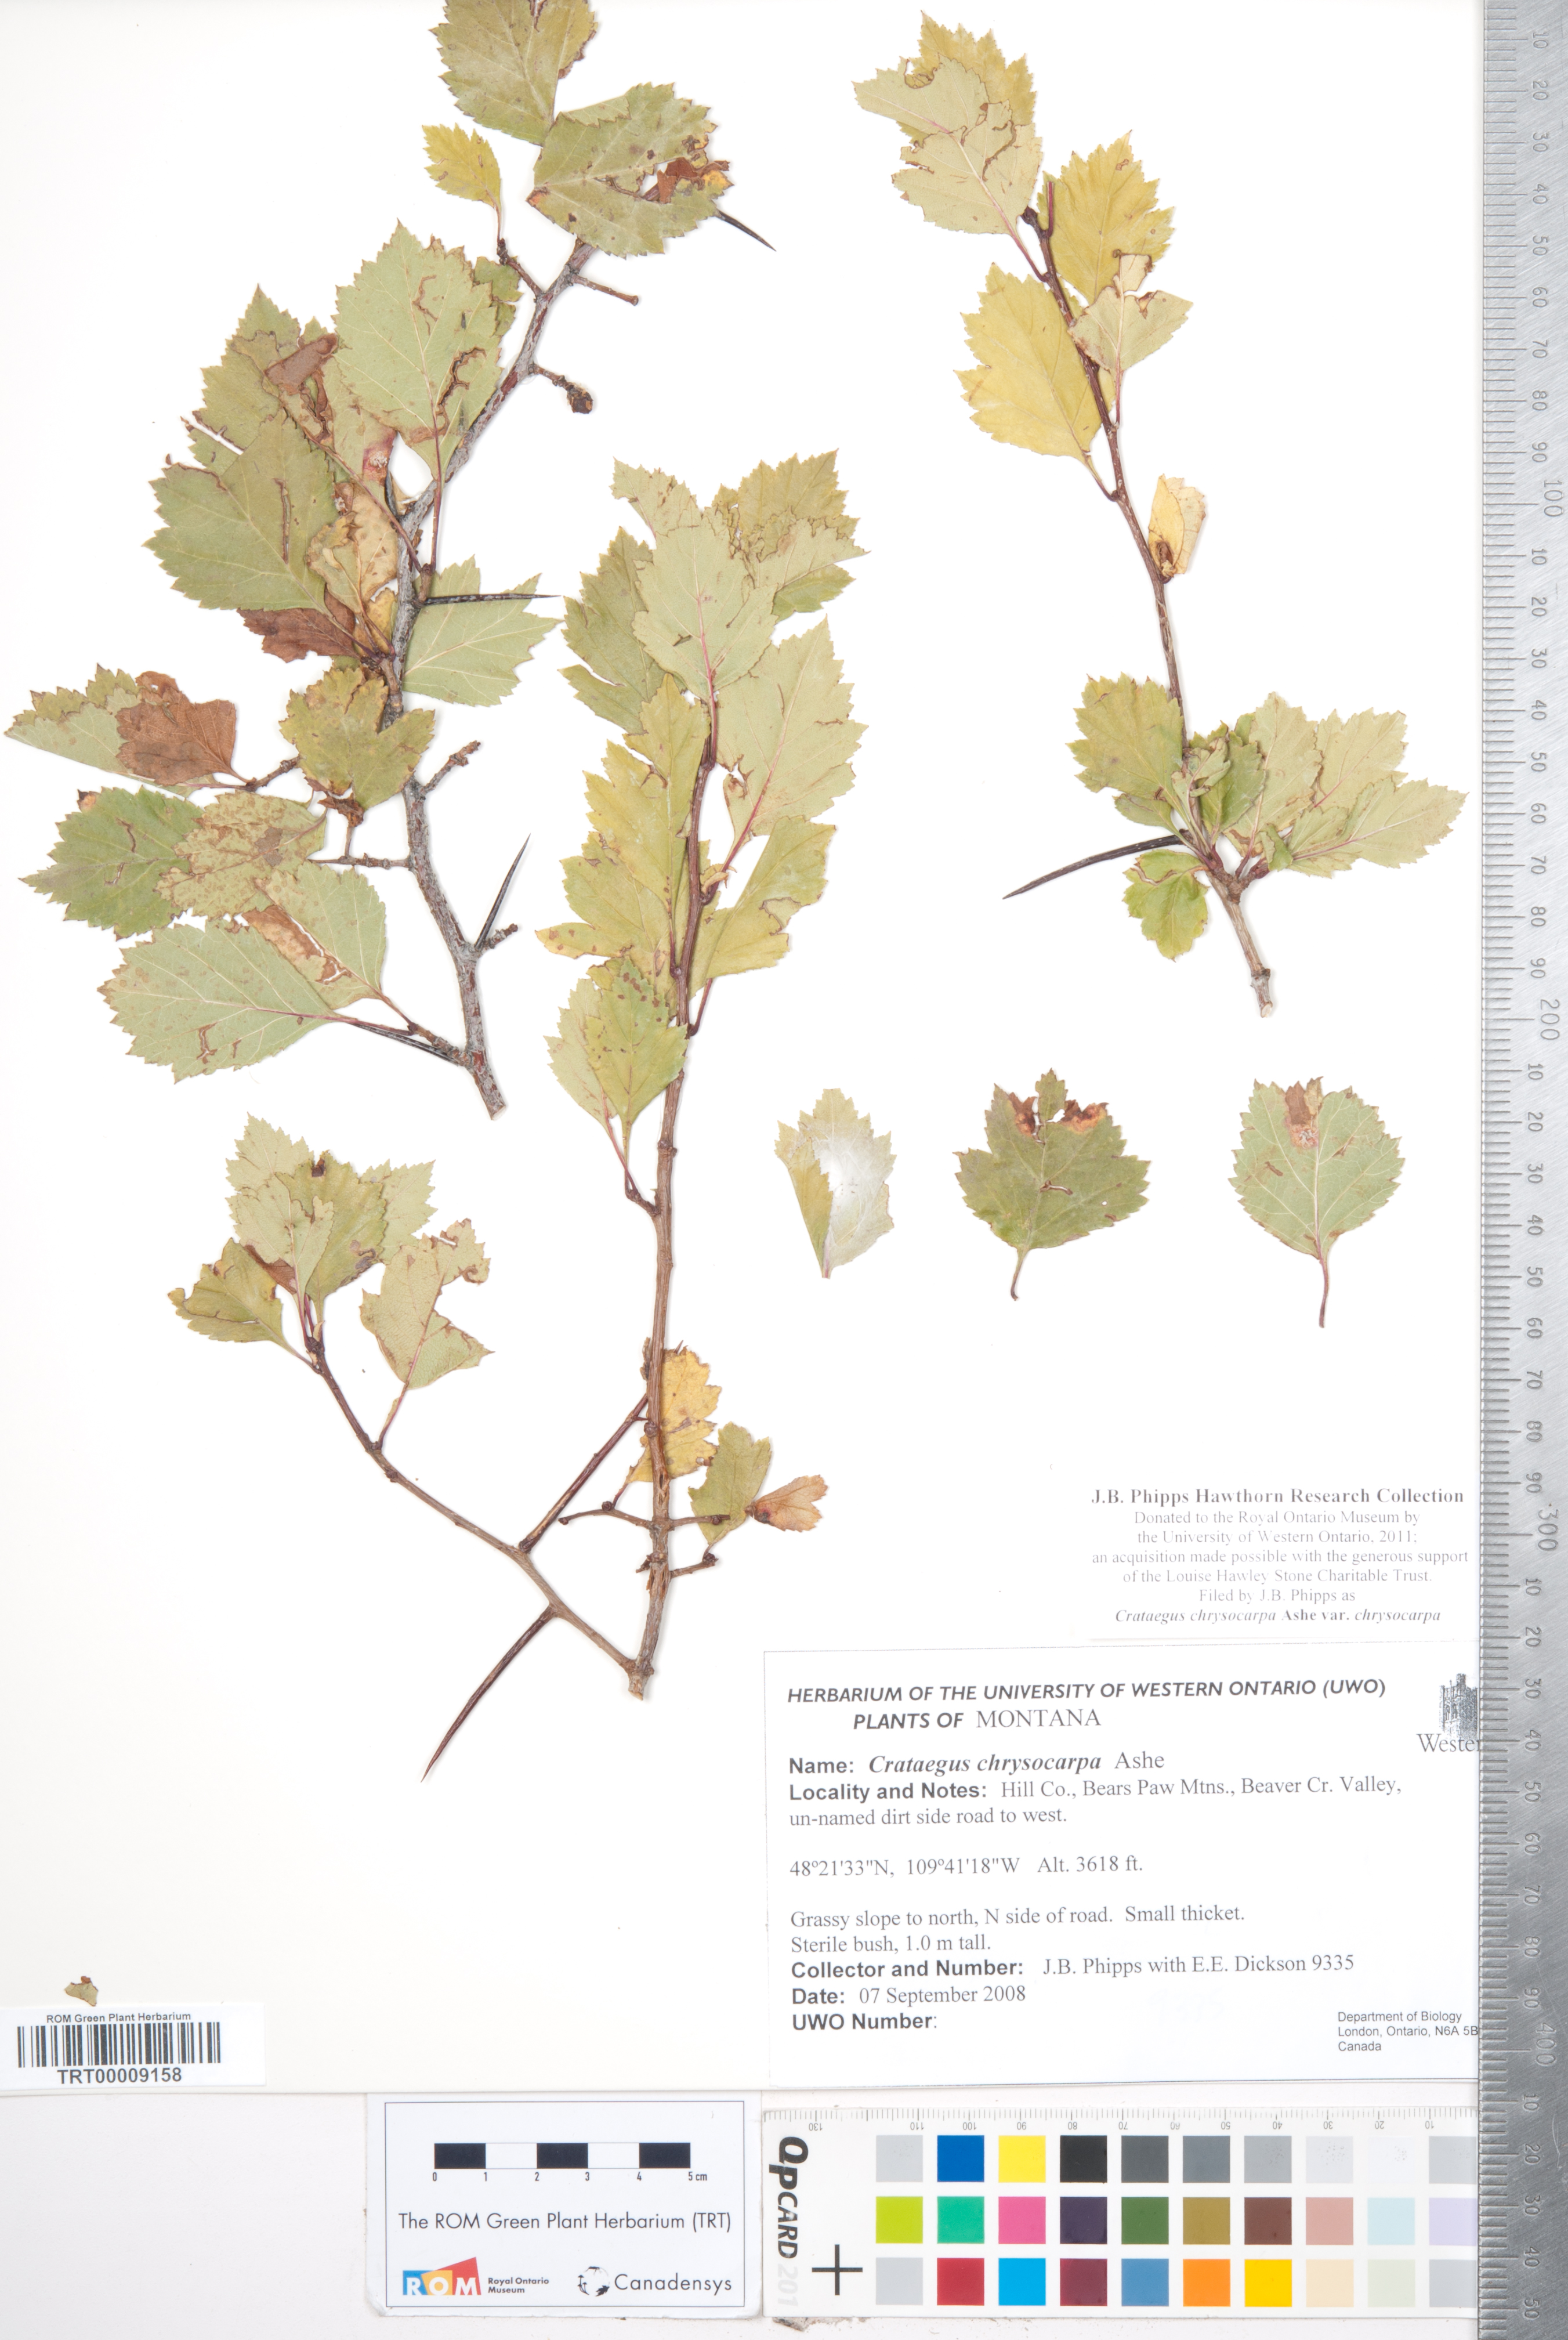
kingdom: Plantae
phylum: Tracheophyta
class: Magnoliopsida
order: Rosales
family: Rosaceae
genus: Crataegus
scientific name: Crataegus chrysocarpa
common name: Fire-berry hawthorn
